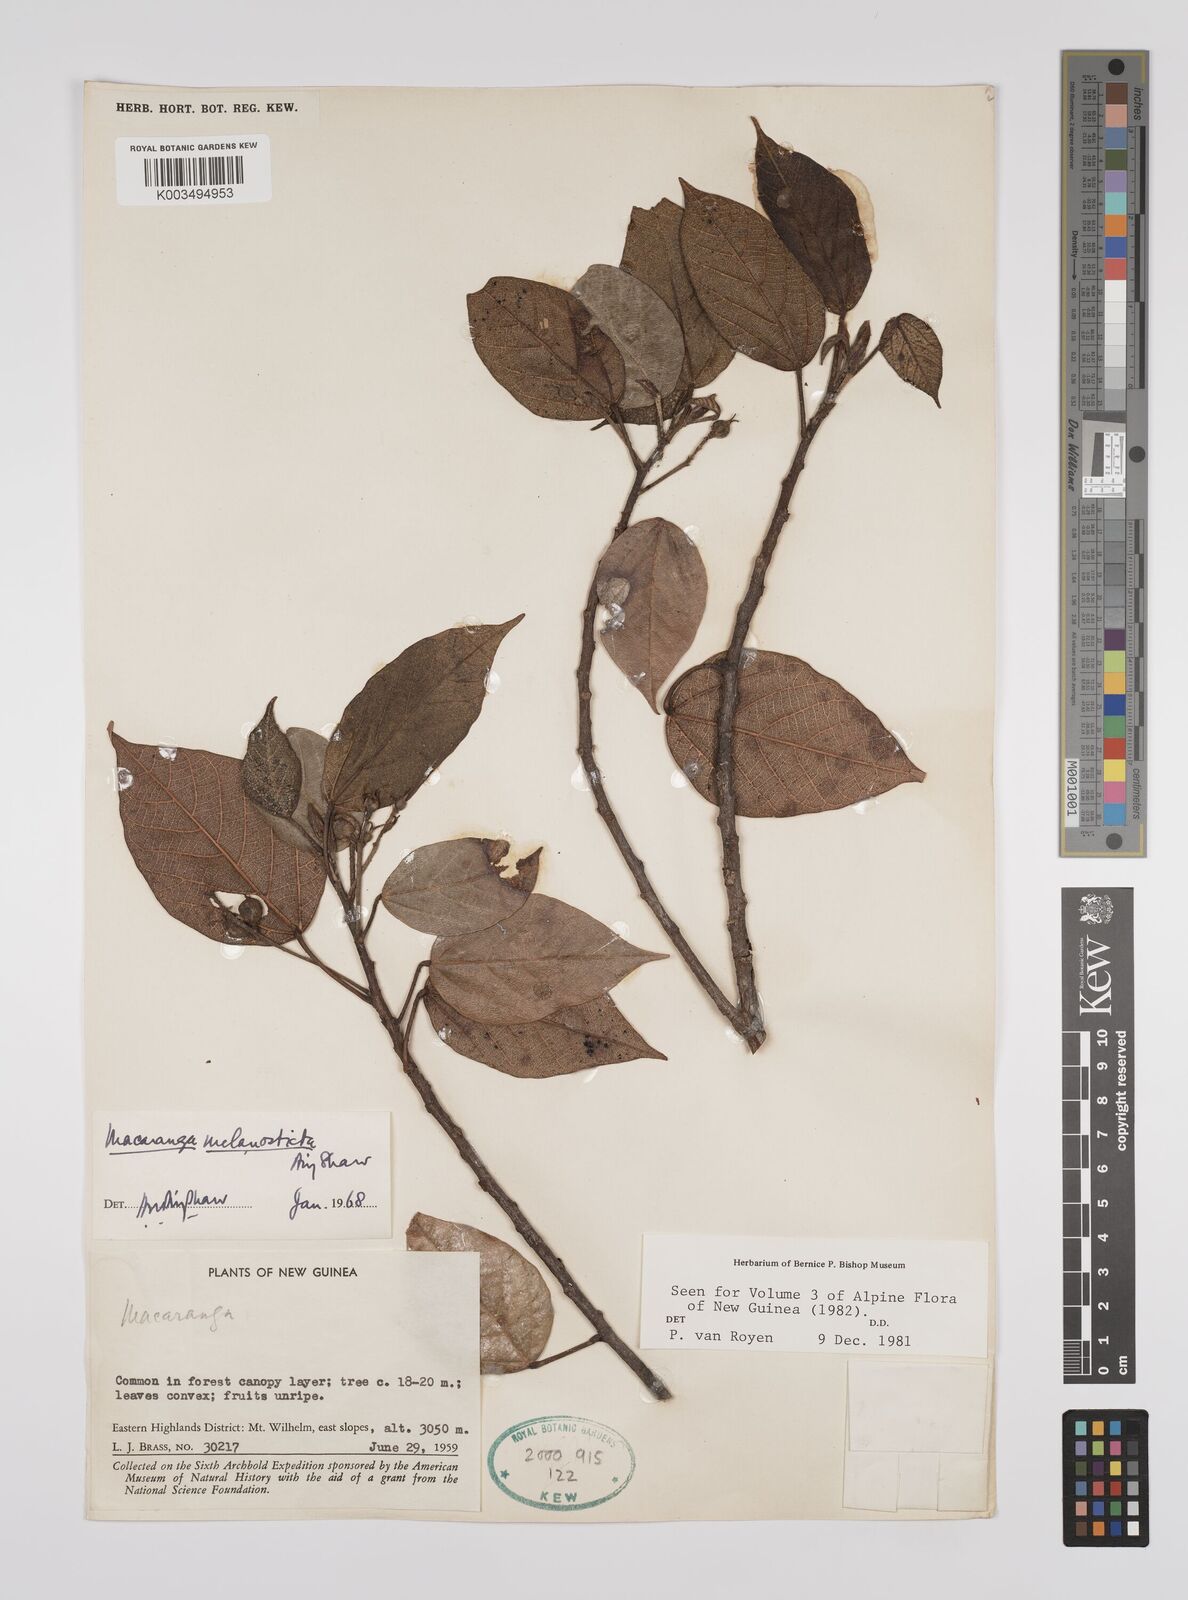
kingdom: Plantae
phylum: Tracheophyta
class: Magnoliopsida
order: Malpighiales
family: Euphorbiaceae
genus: Macaranga
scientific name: Macaranga melanosticta
